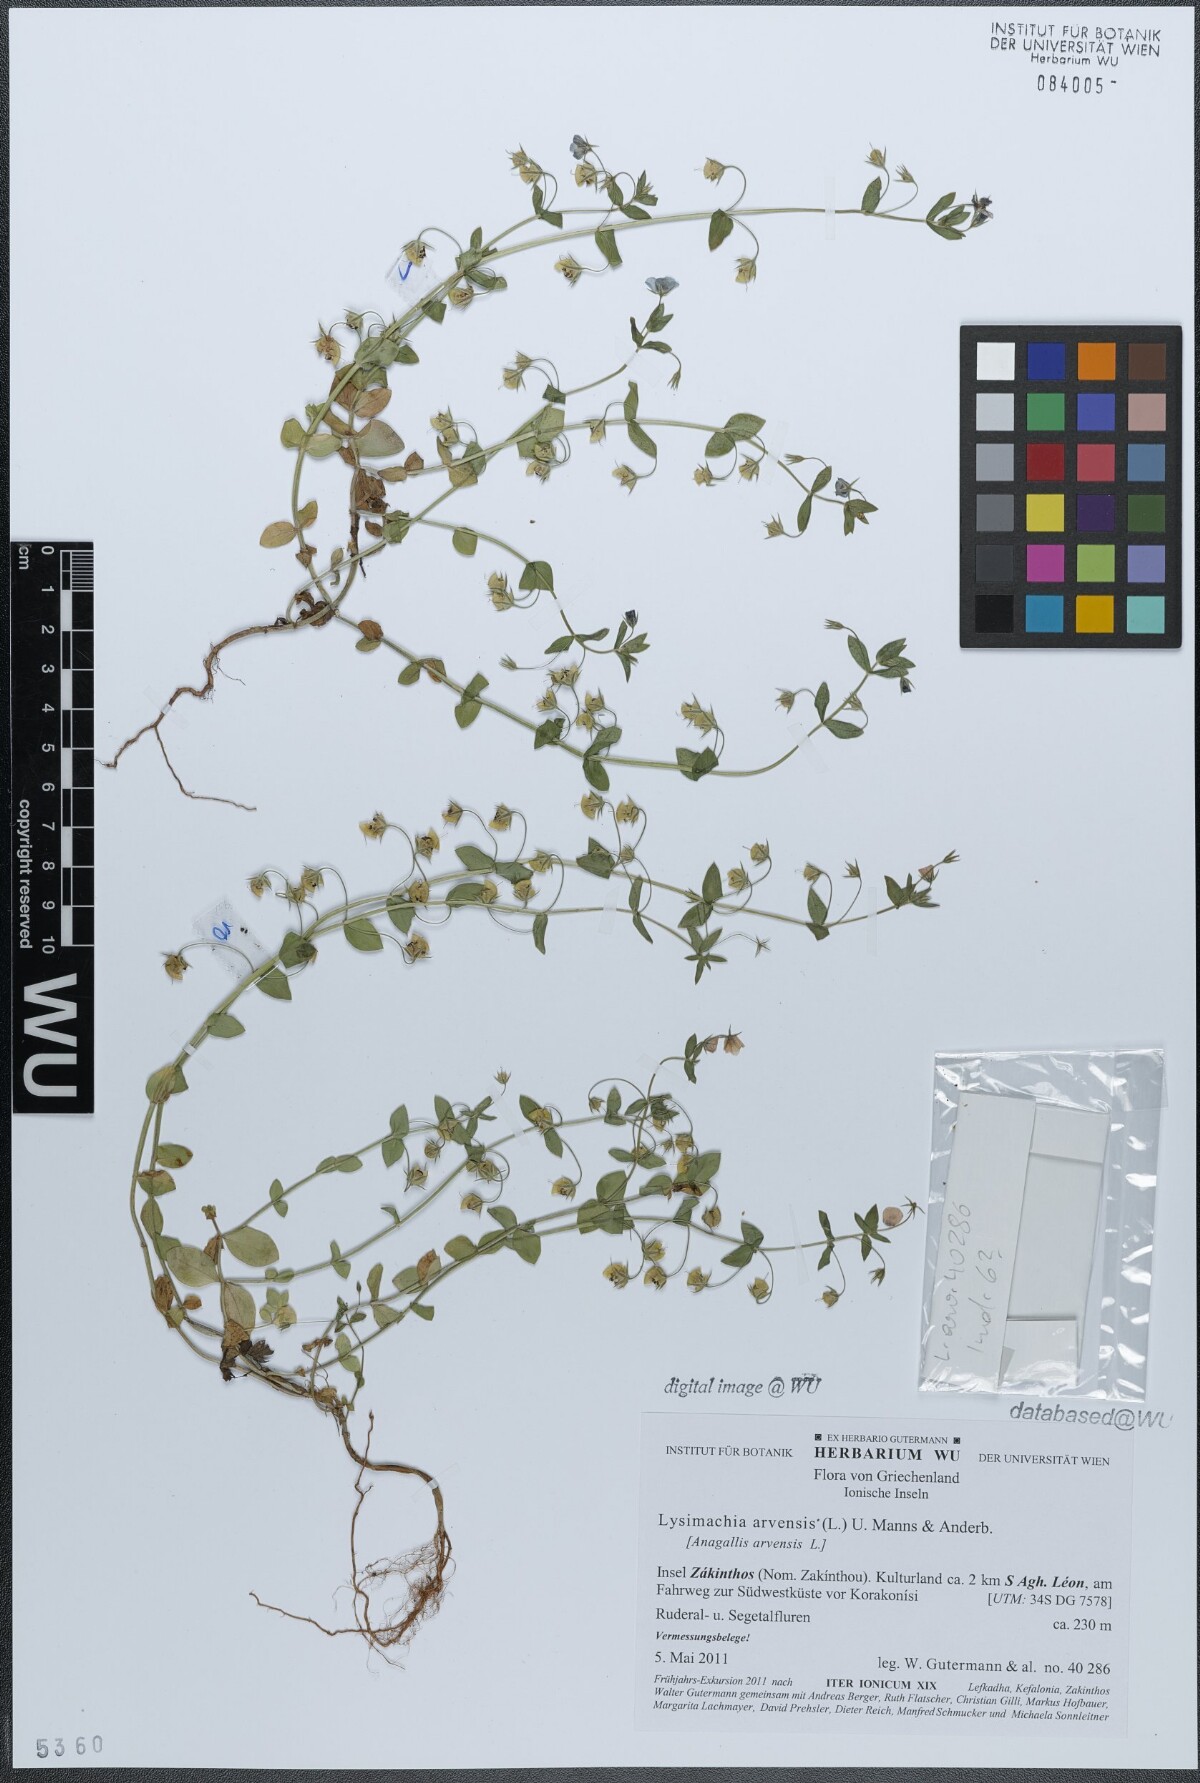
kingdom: Plantae
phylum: Tracheophyta
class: Magnoliopsida
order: Ericales
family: Primulaceae
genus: Lysimachia
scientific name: Lysimachia arvensis
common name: Scarlet pimpernel
